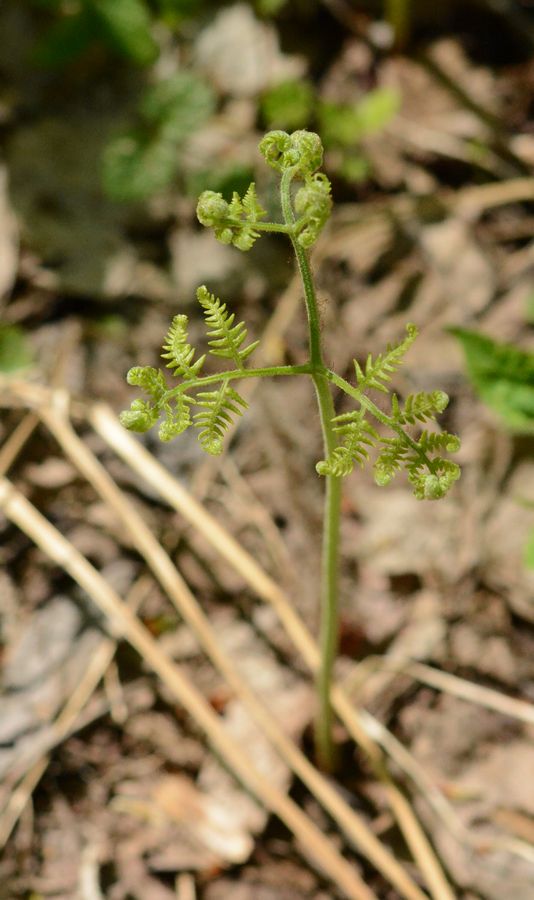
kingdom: Plantae
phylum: Tracheophyta
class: Polypodiopsida
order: Polypodiales
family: Dennstaedtiaceae
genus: Pteridium
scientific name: Pteridium aquilinum
